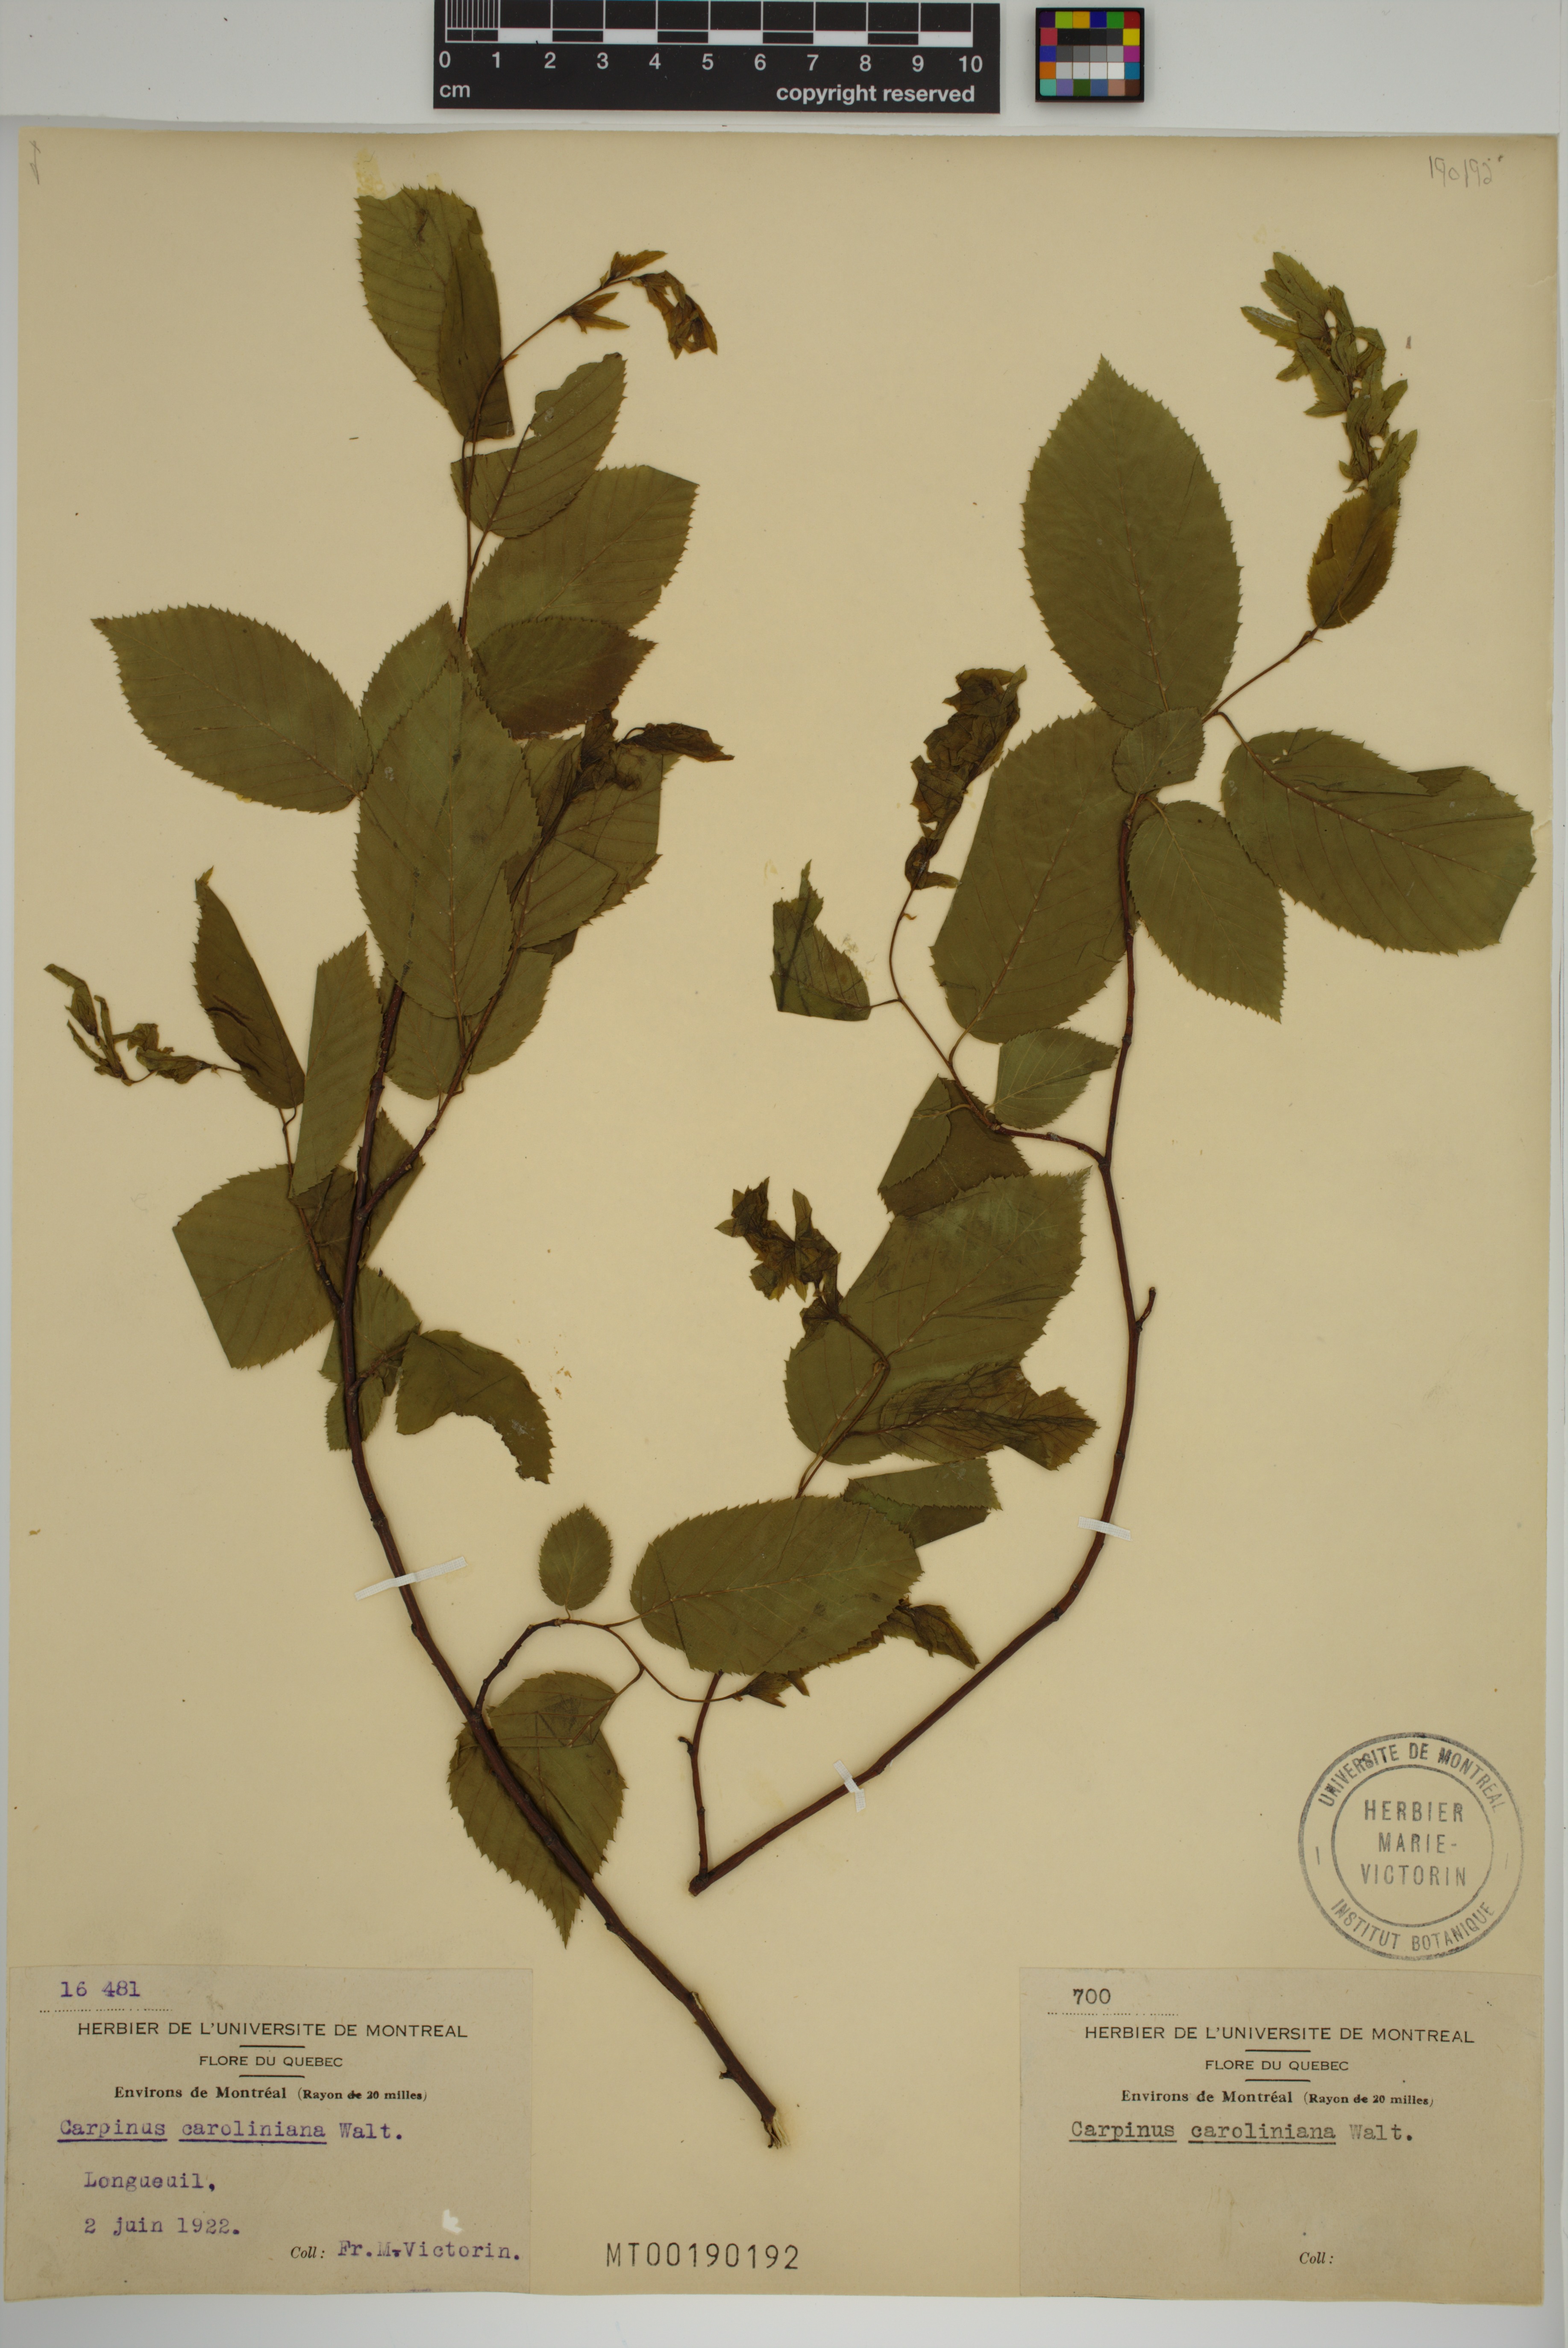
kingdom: Plantae
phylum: Tracheophyta
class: Magnoliopsida
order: Fagales
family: Betulaceae
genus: Carpinus
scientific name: Carpinus caroliniana
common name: American hornbeam
